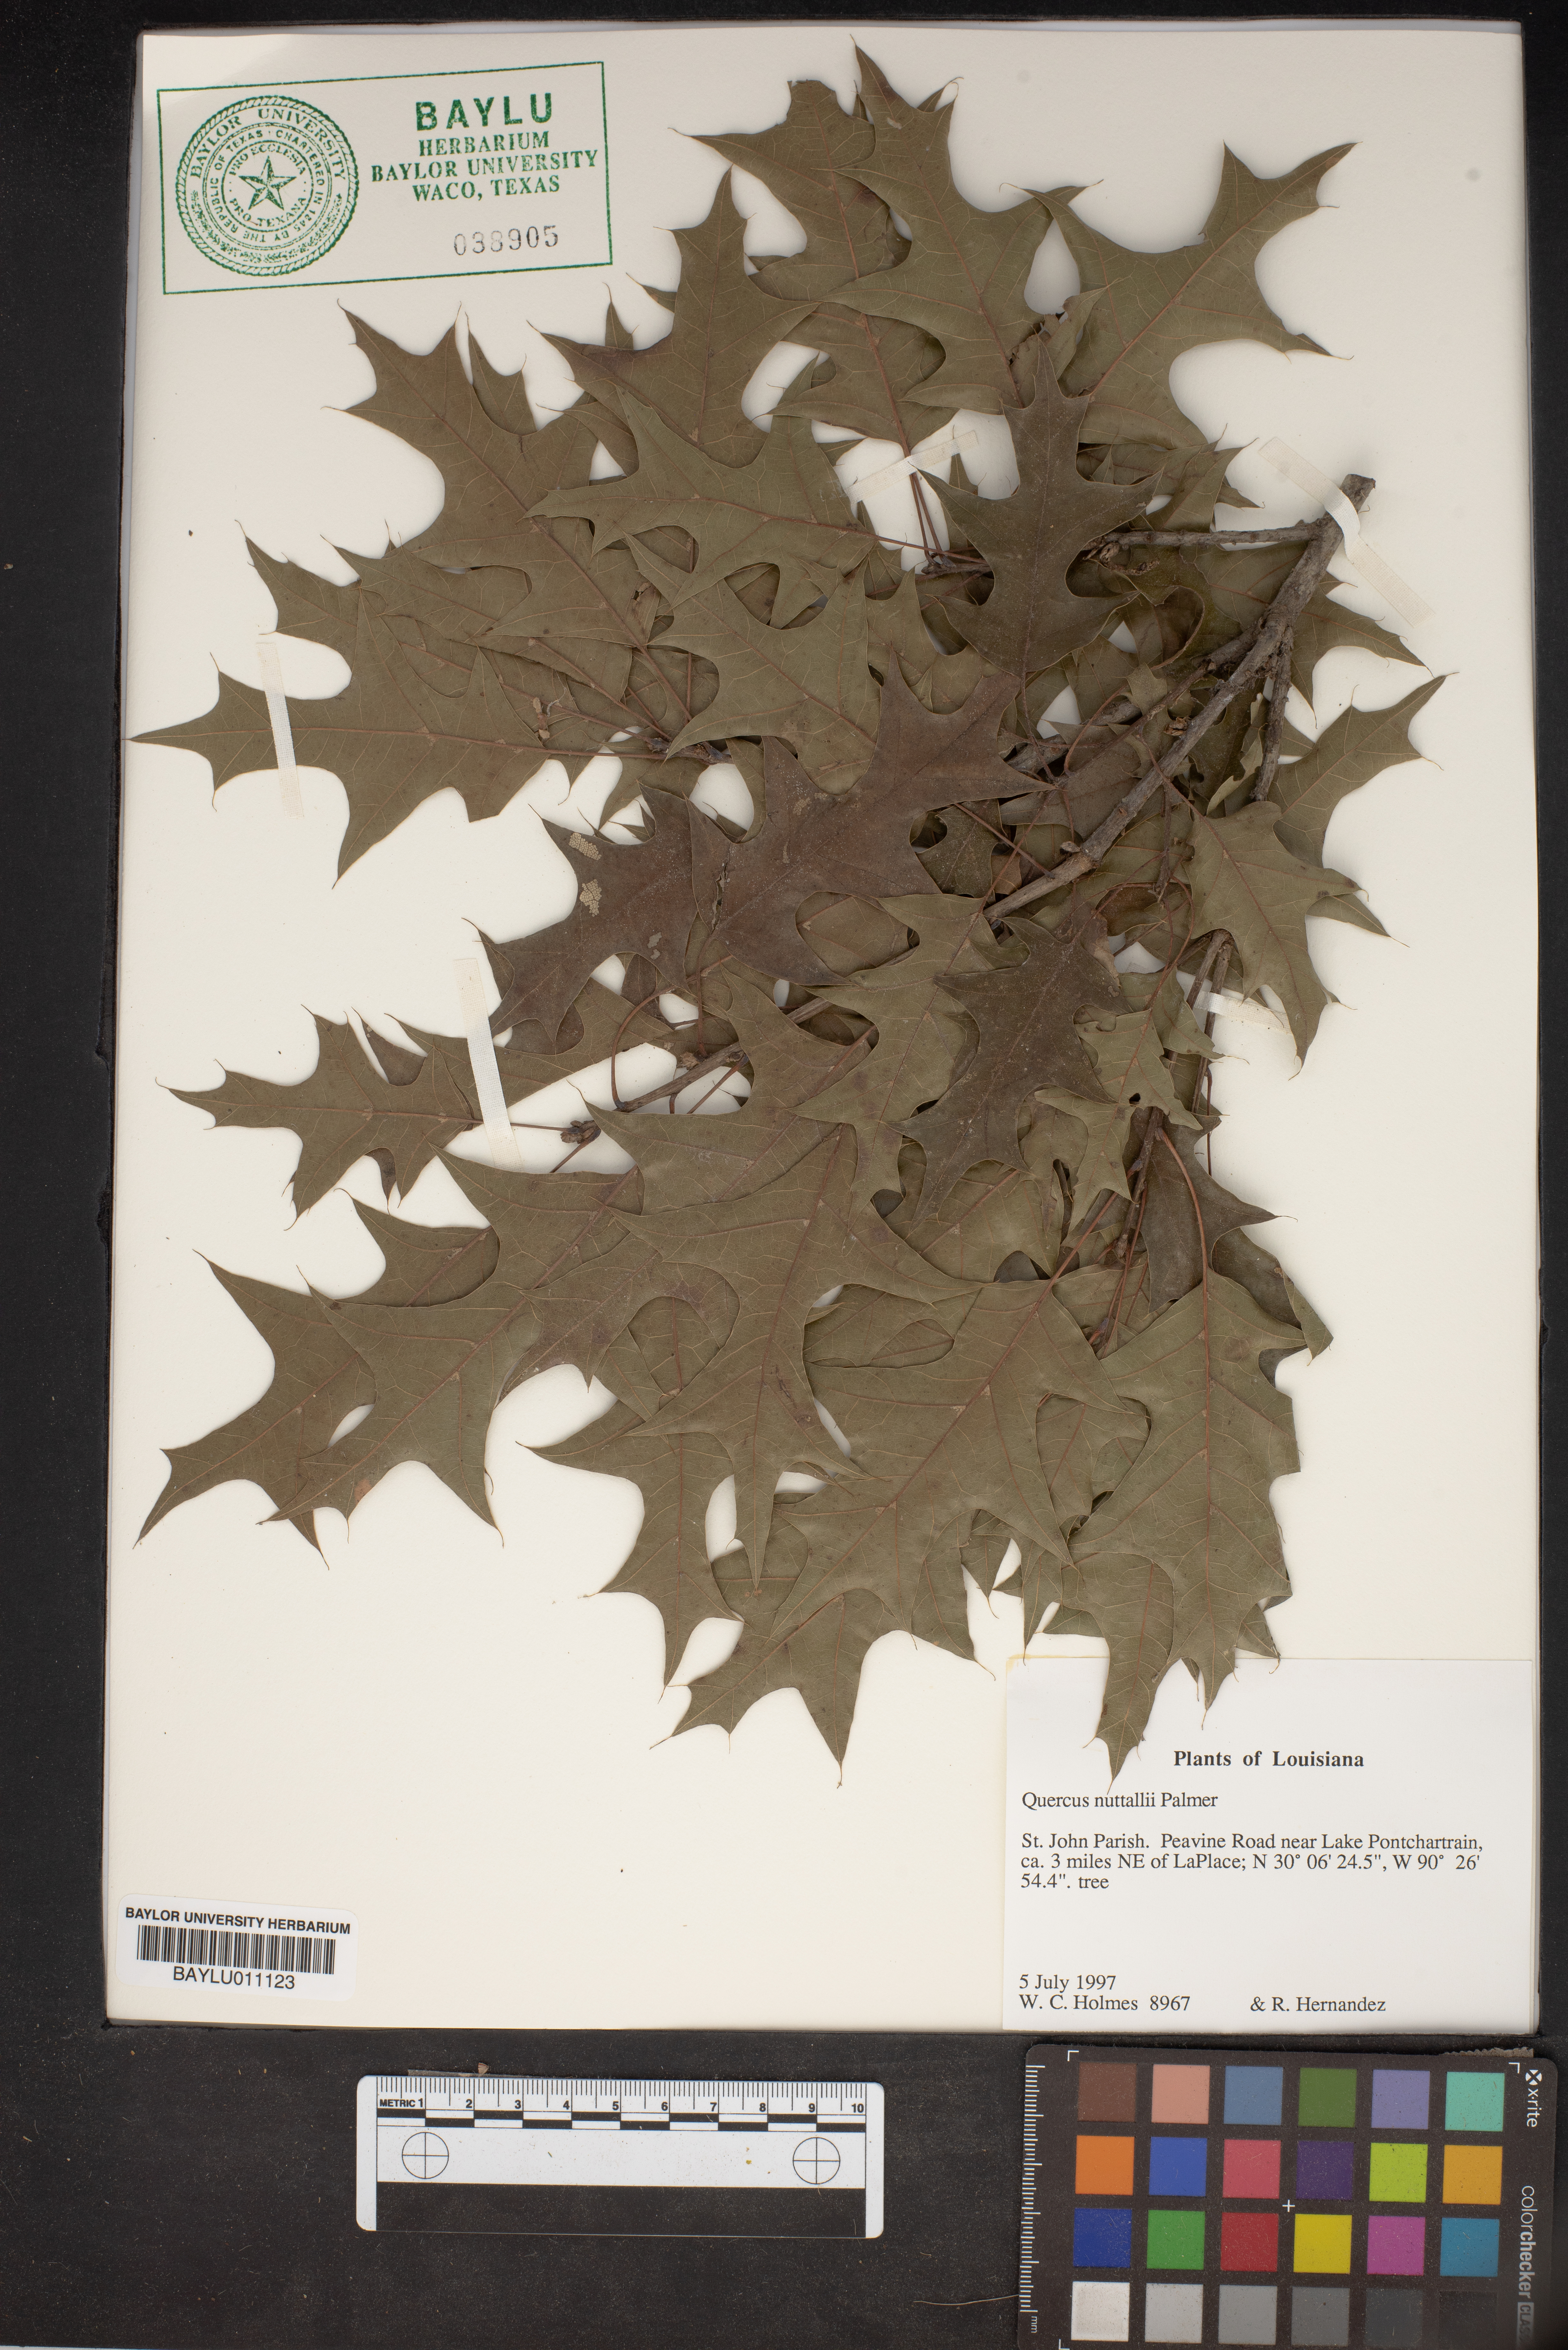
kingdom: Plantae
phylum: Tracheophyta
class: Magnoliopsida
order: Fagales
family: Fagaceae
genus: Quercus
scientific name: Quercus texana
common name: Nuttall oak
